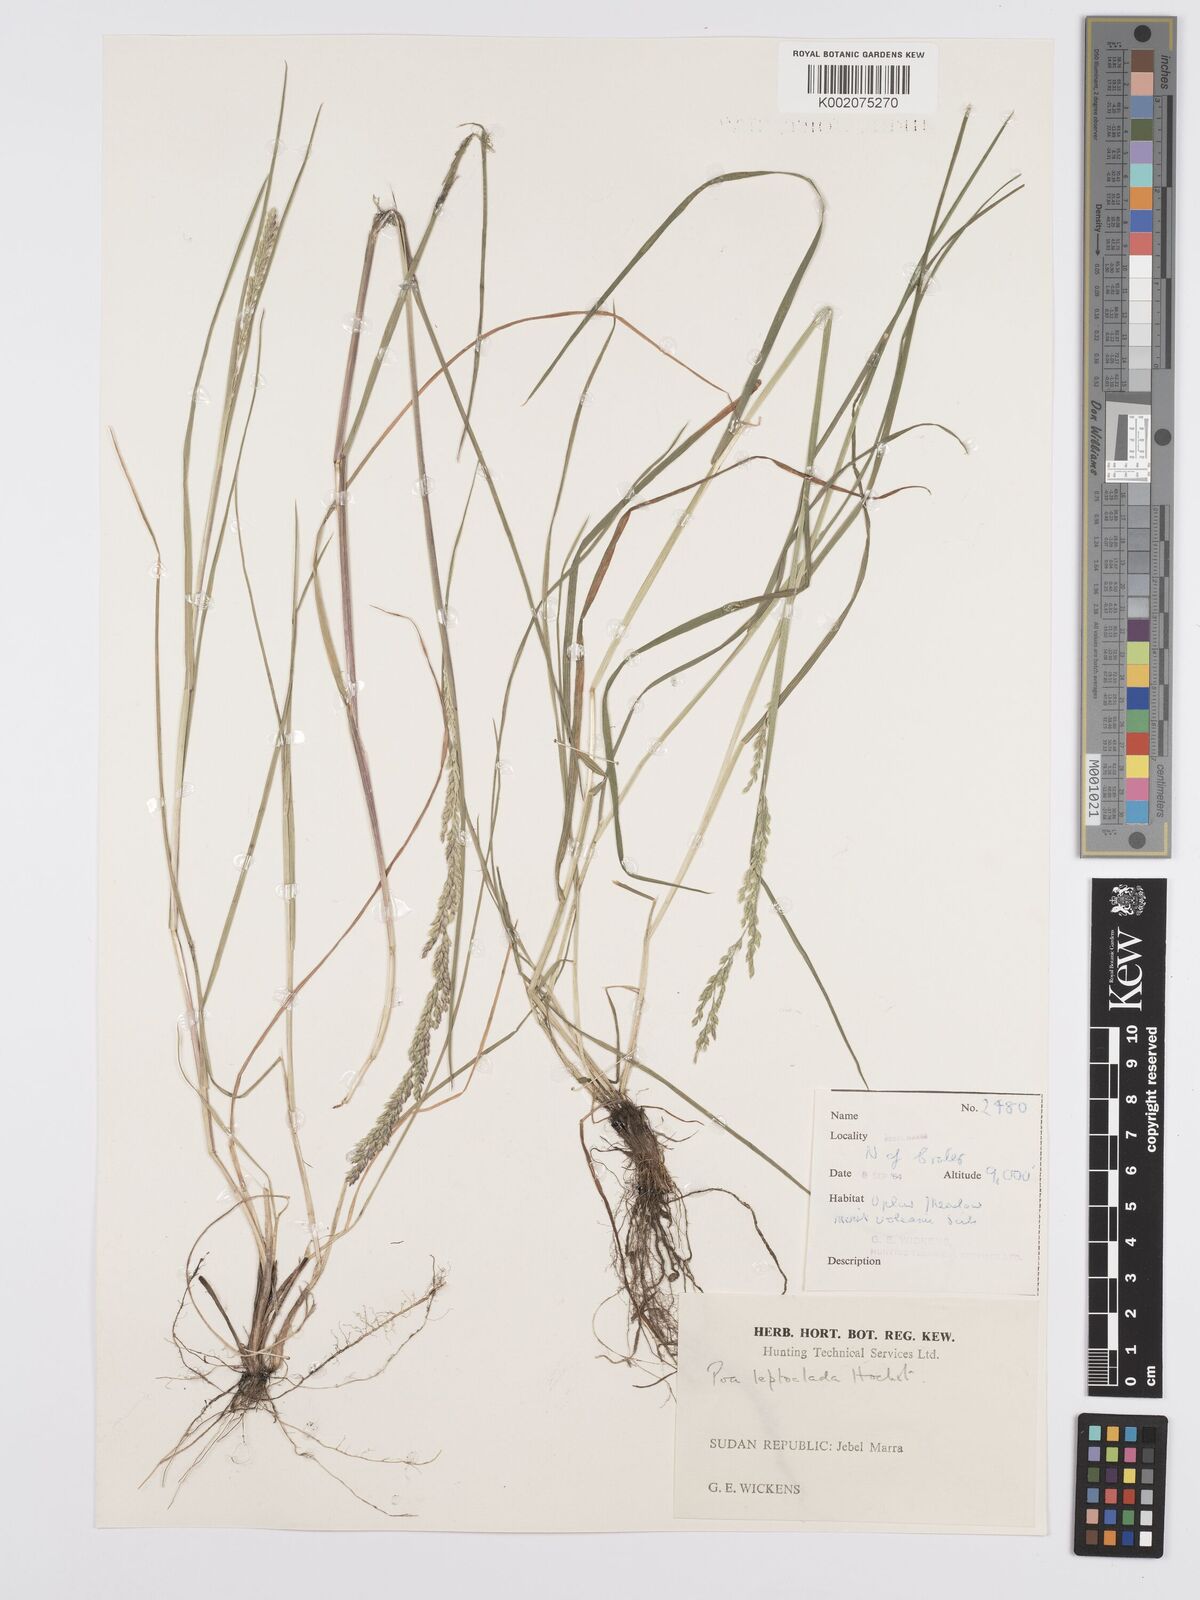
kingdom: Plantae
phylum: Tracheophyta
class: Liliopsida
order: Poales
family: Poaceae
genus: Poa
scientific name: Poa leptoclada
